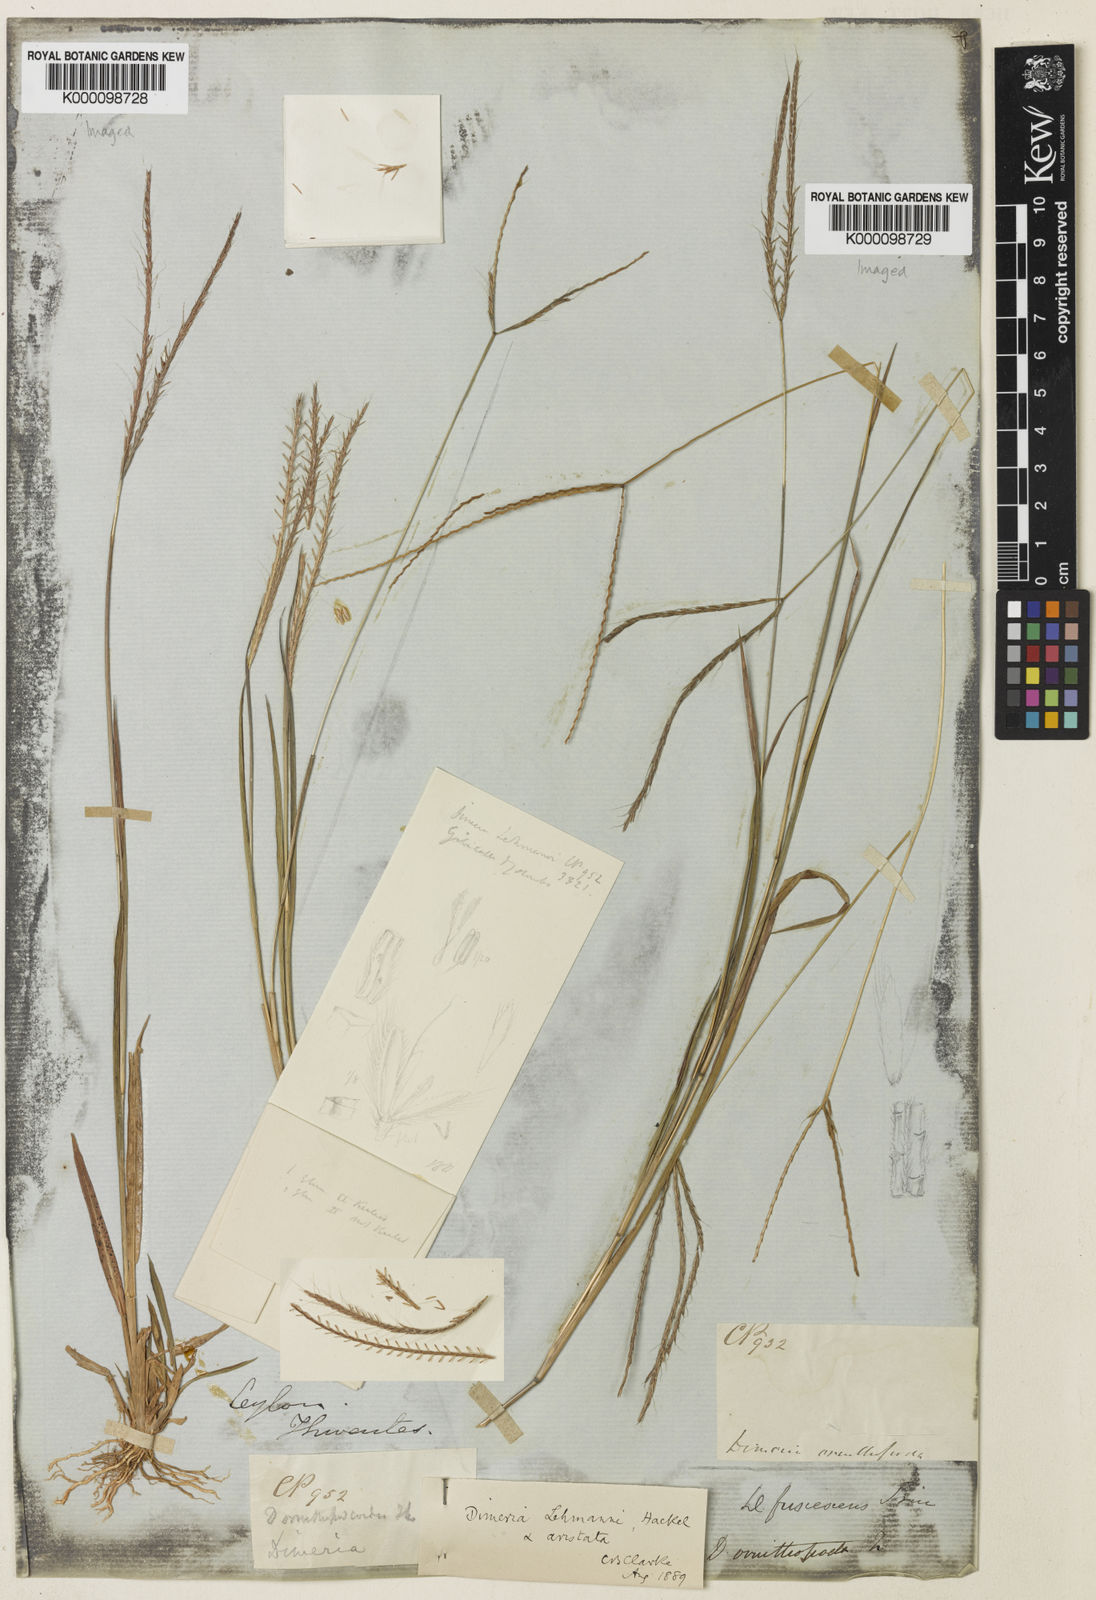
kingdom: Plantae
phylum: Tracheophyta
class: Liliopsida
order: Poales
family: Poaceae
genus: Dimeria
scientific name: Dimeria aristata
